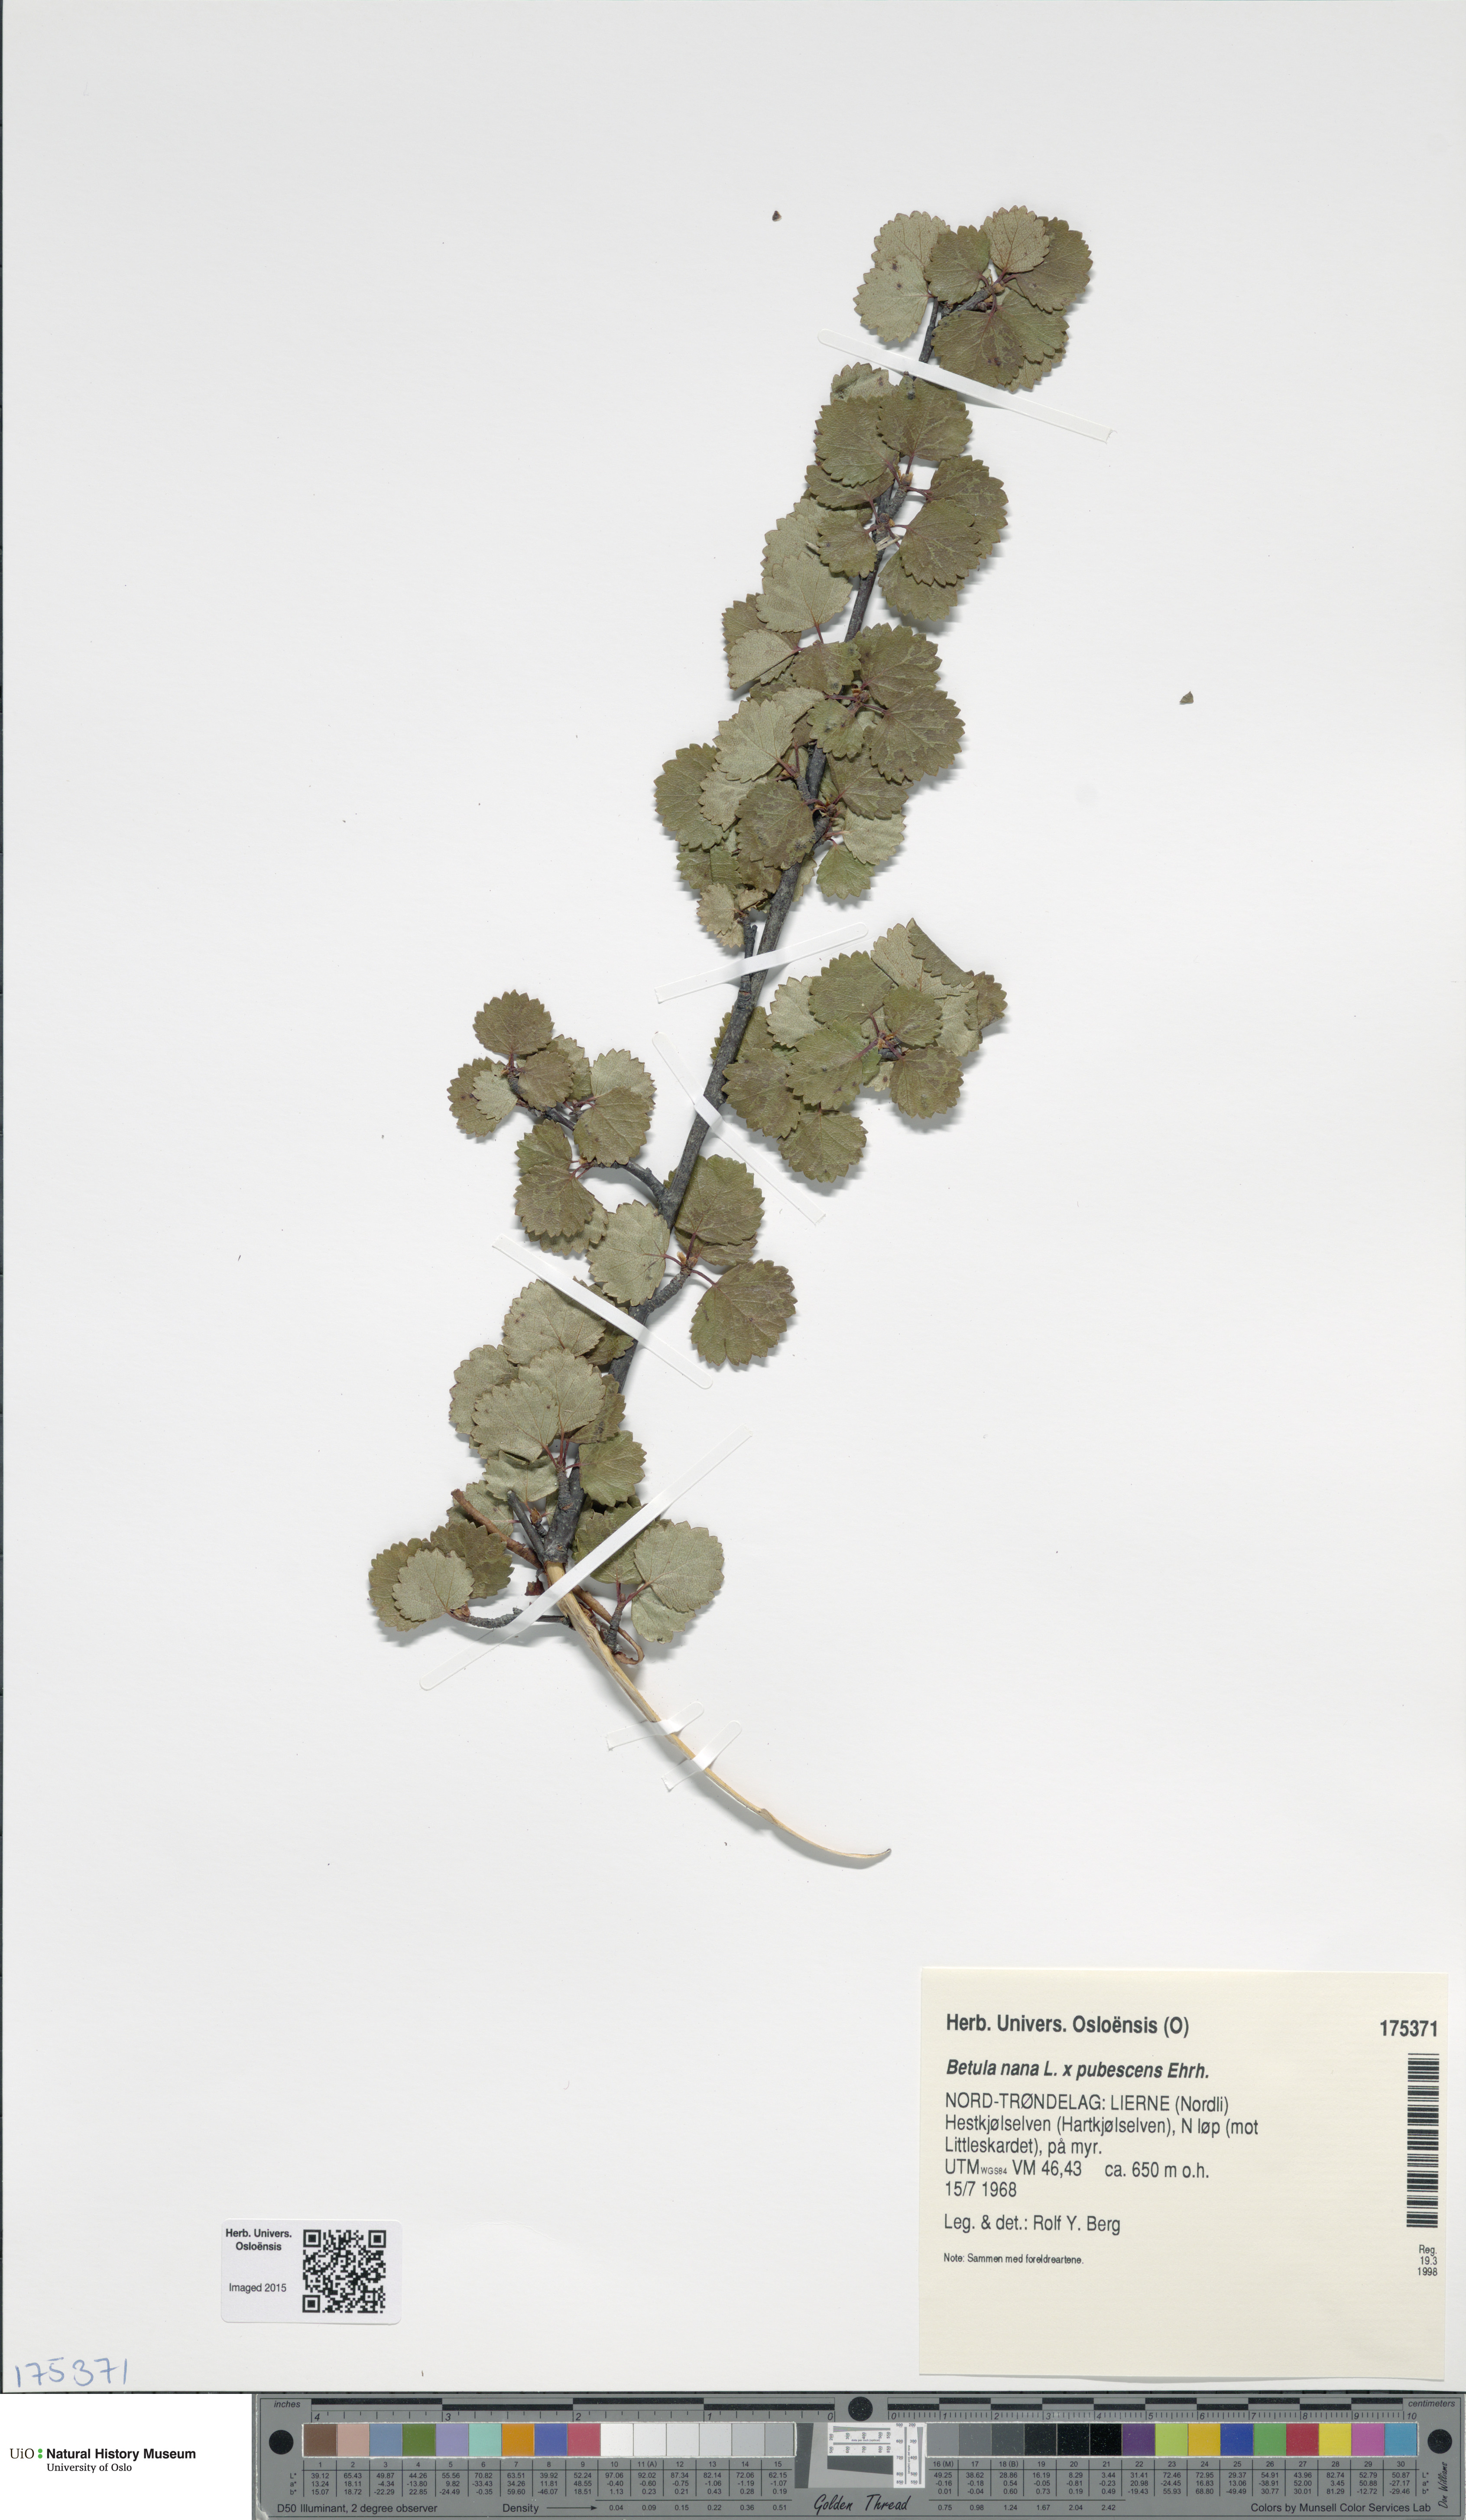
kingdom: Plantae
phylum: Tracheophyta
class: Magnoliopsida
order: Fagales
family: Betulaceae
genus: Betula
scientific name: Betula
